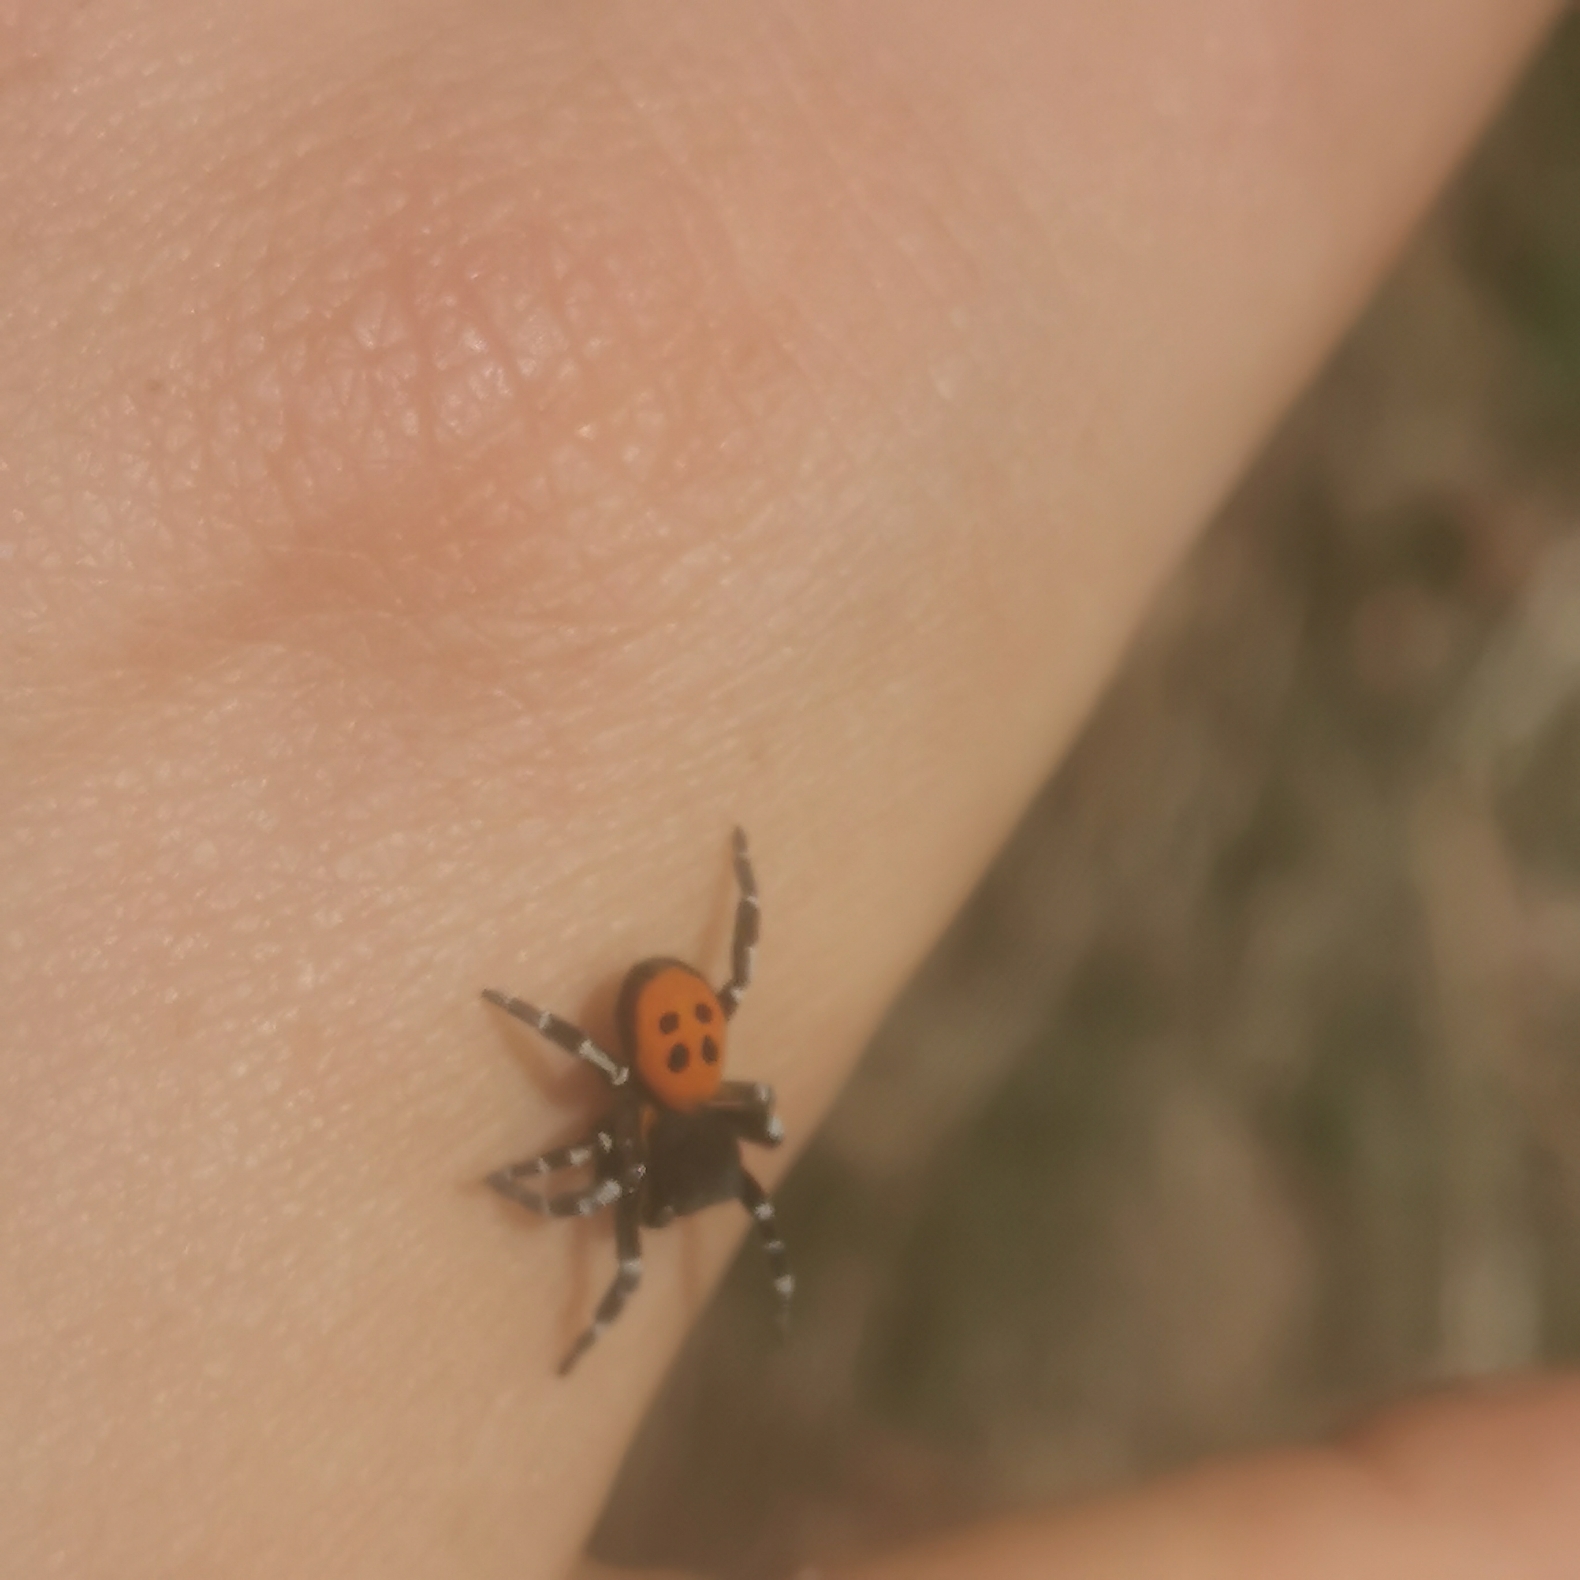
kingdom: Animalia
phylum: Arthropoda
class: Arachnida
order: Araneae
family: Eresidae
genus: Eresus
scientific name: Eresus sandaliatus
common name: Mariehøneedderkop
